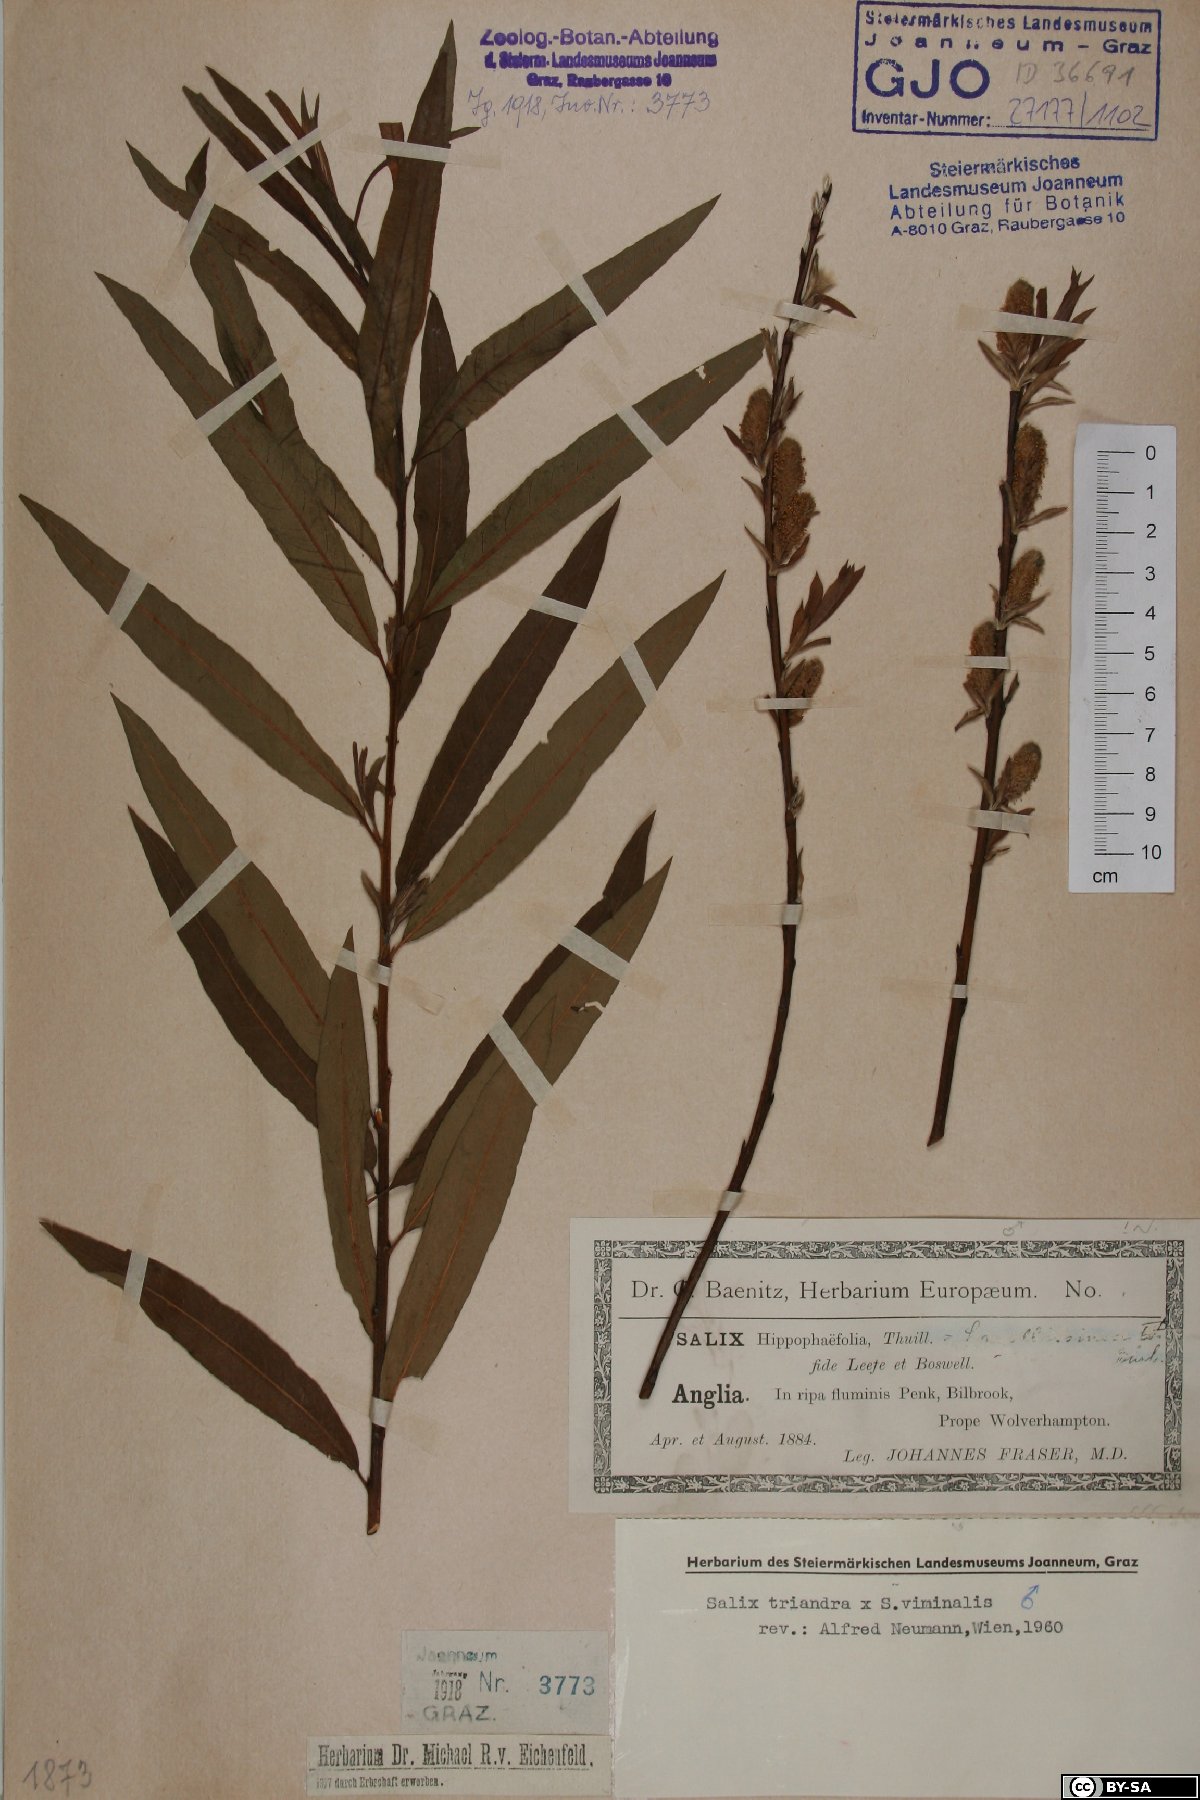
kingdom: Plantae
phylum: Tracheophyta
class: Magnoliopsida
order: Malpighiales
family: Salicaceae
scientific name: Salicaceae
